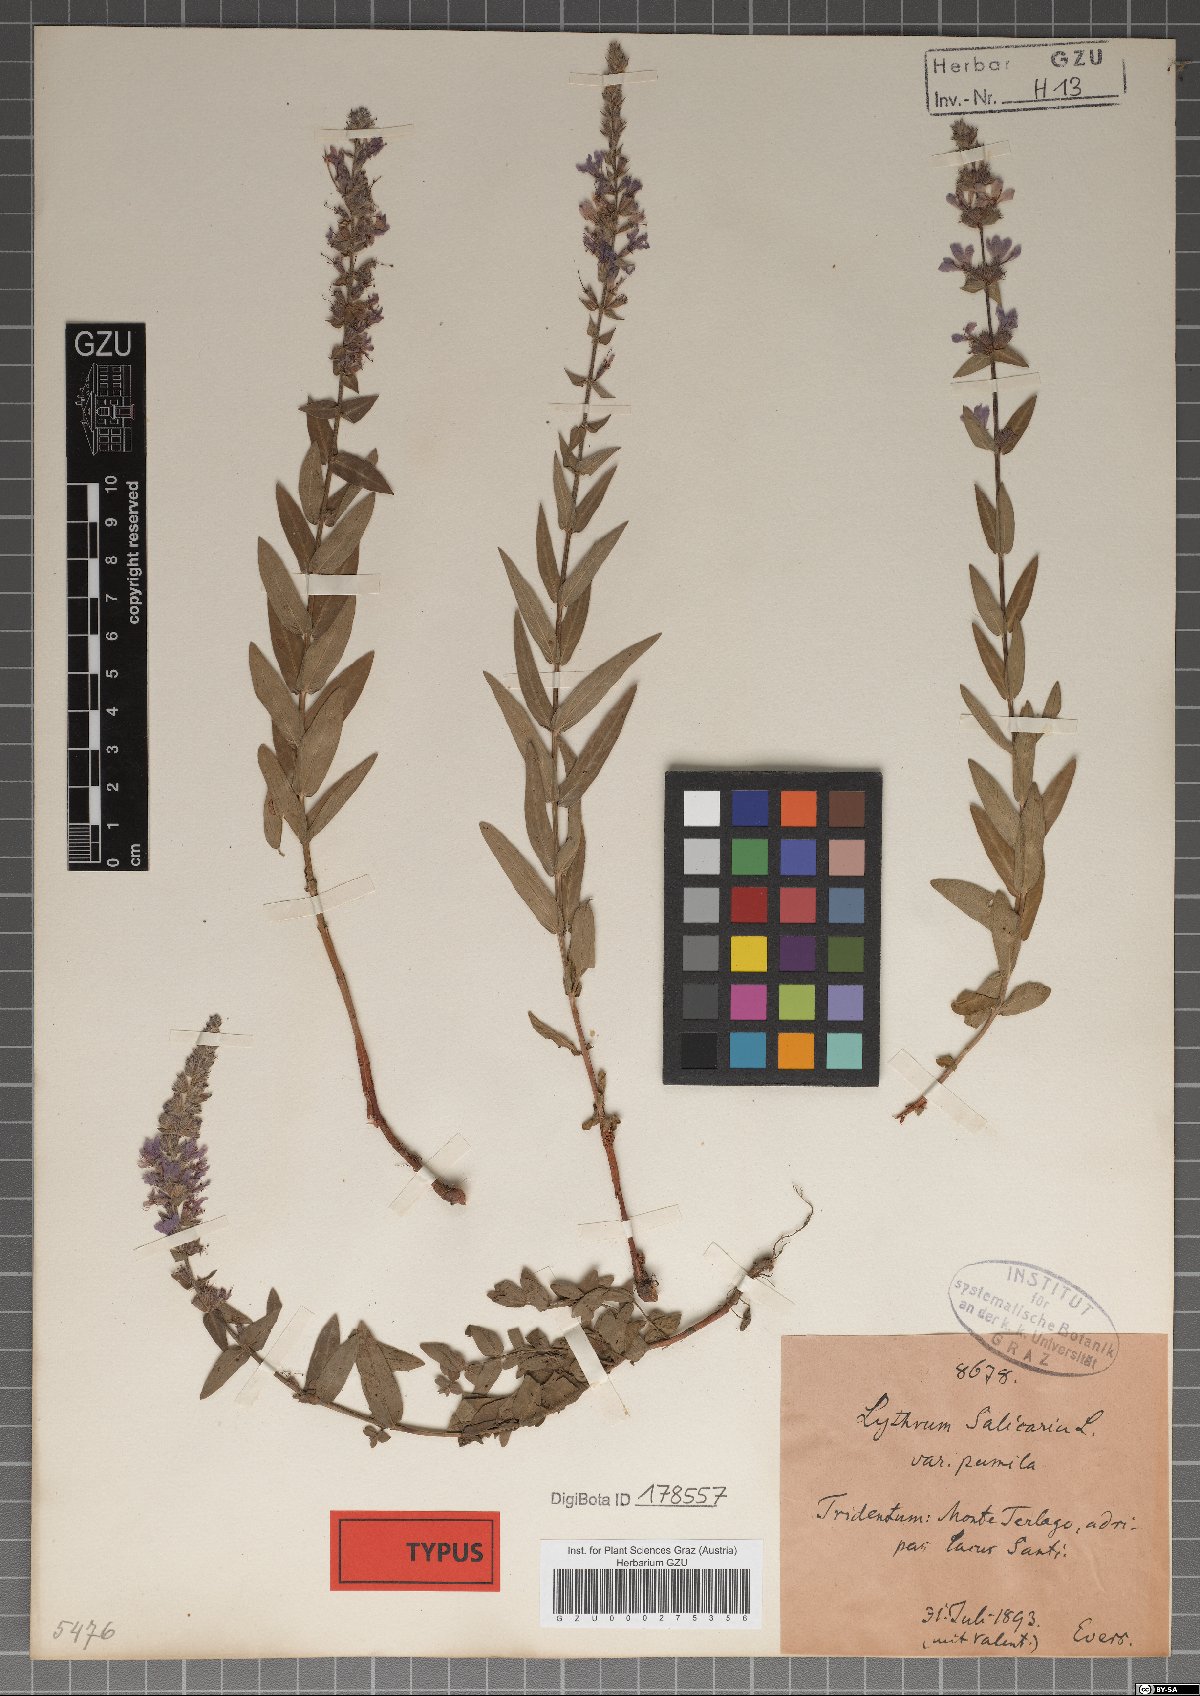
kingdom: Plantae
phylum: Tracheophyta
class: Magnoliopsida
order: Myrtales
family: Lythraceae
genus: Lythrum
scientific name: Lythrum salicaria
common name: Purple loosestrife
